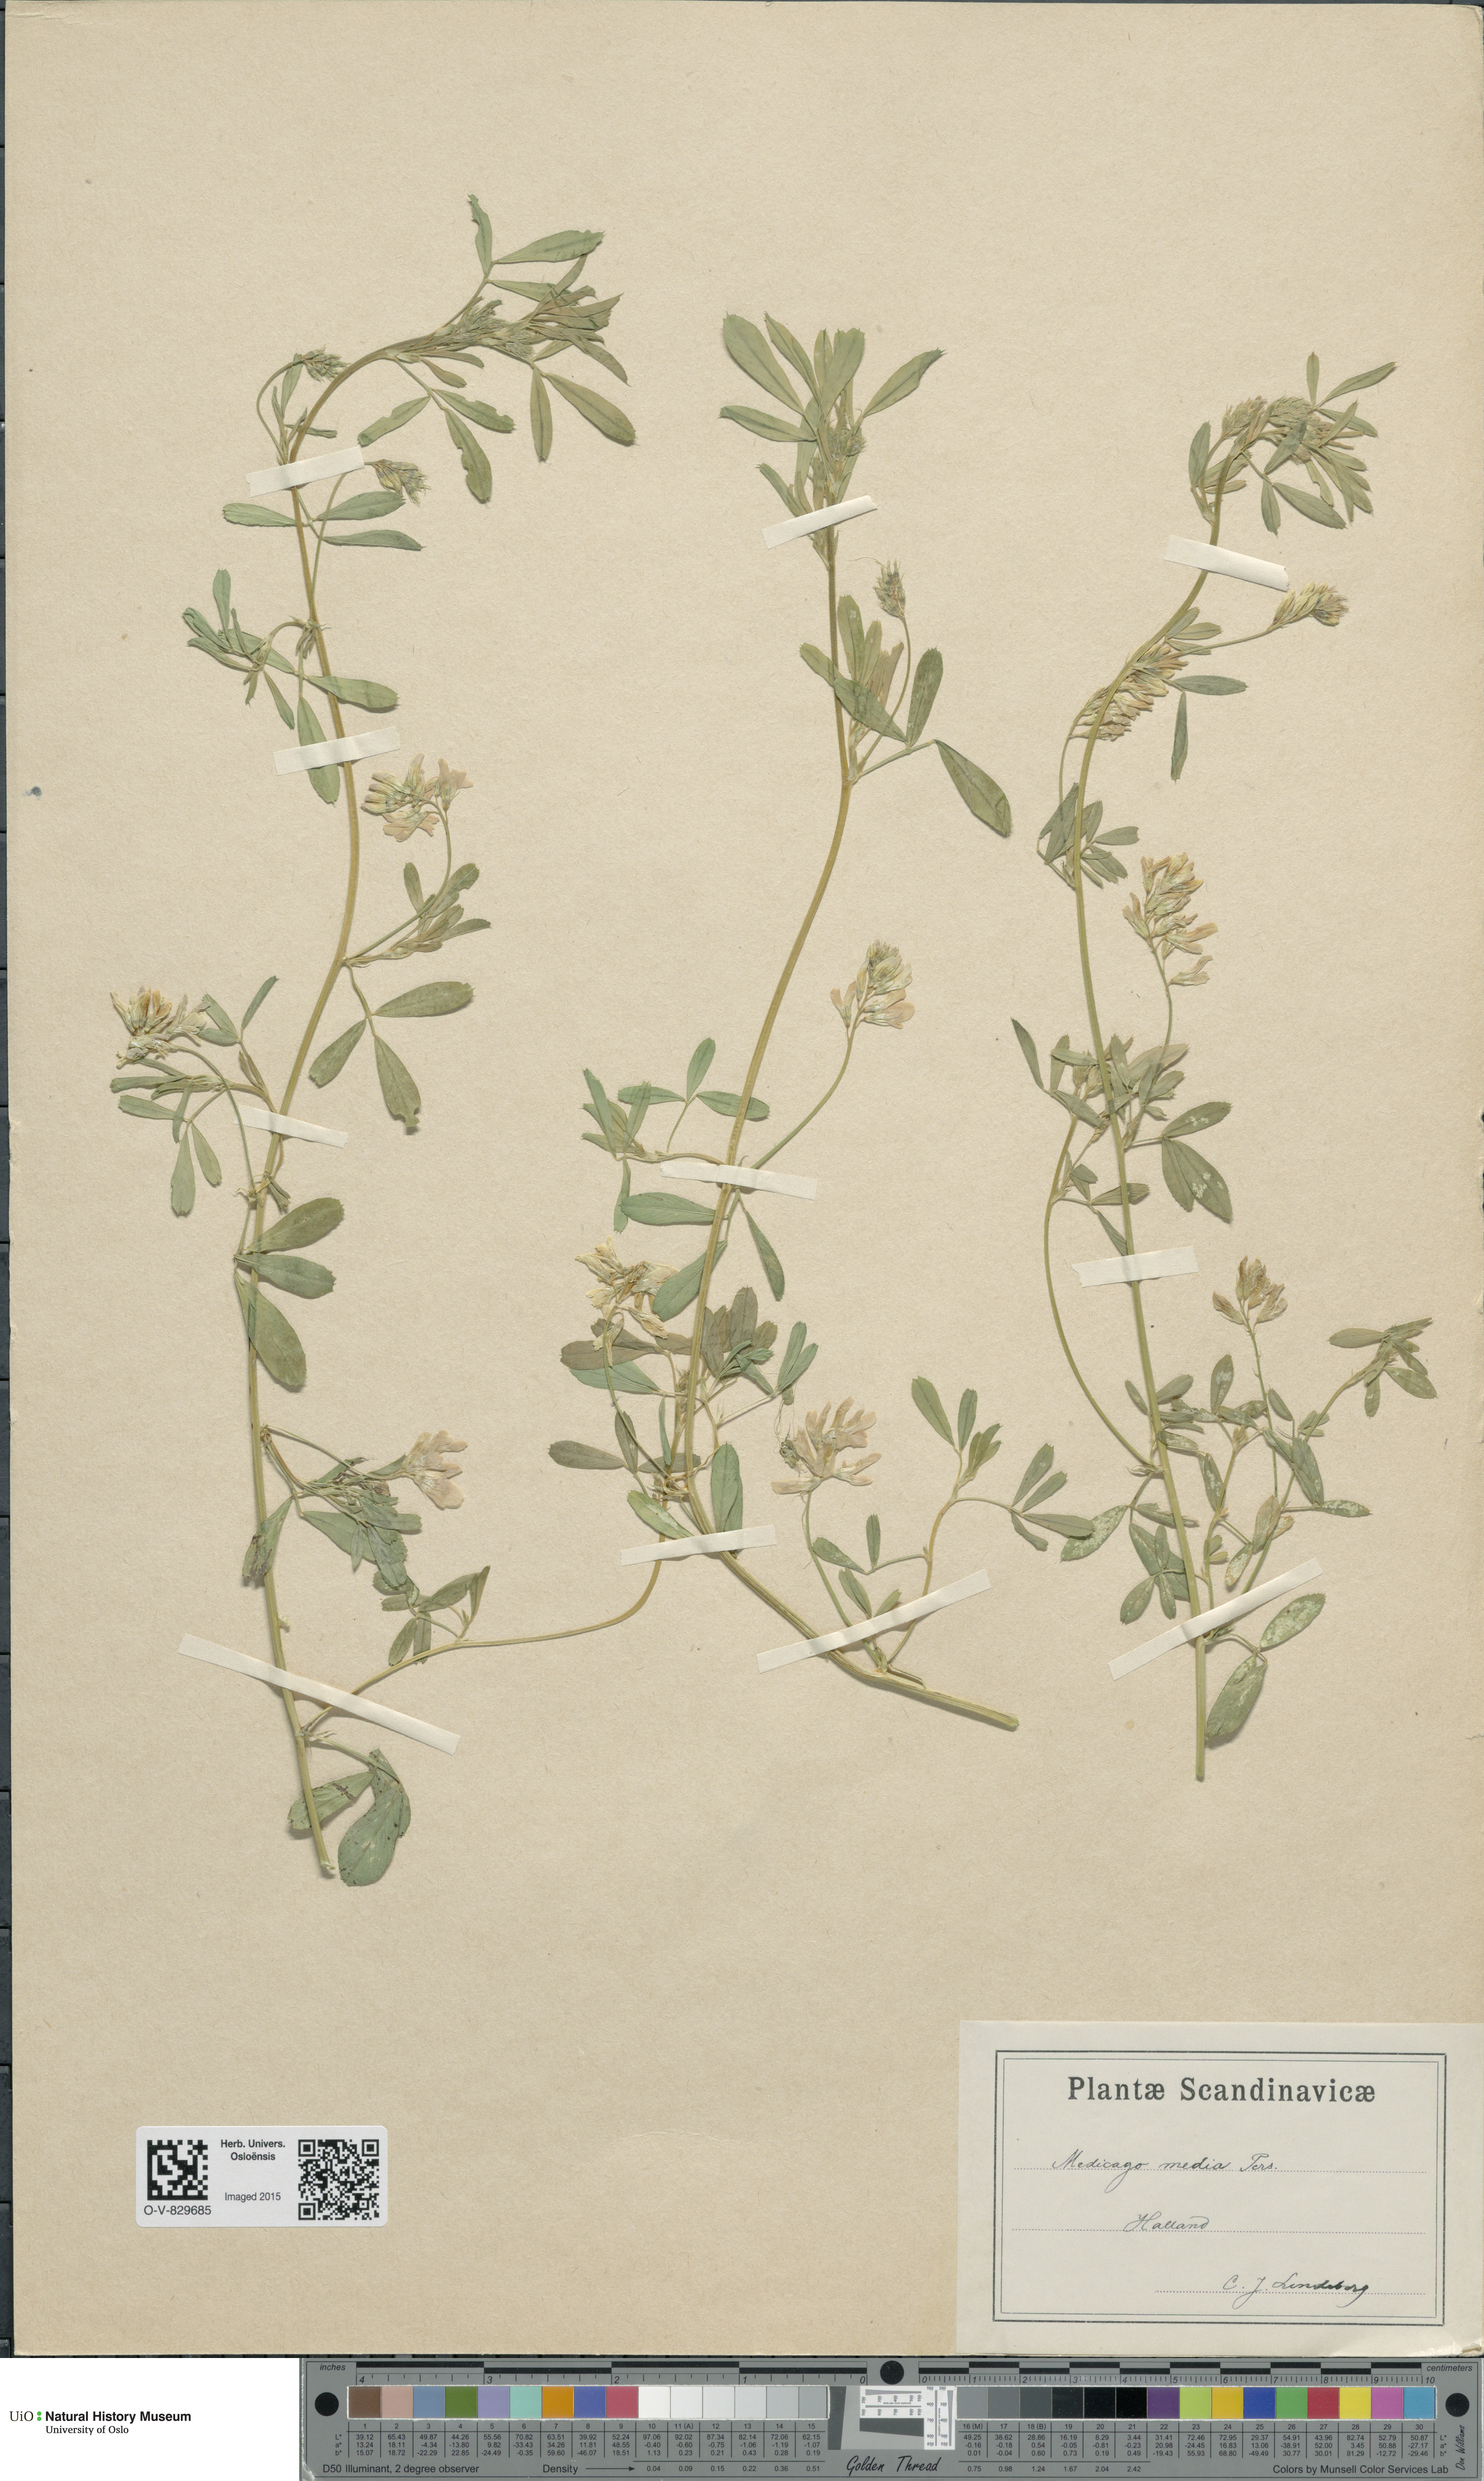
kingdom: Plantae
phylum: Tracheophyta
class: Magnoliopsida
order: Fabales
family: Fabaceae
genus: Medicago
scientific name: Medicago varia
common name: Sand lucerne
